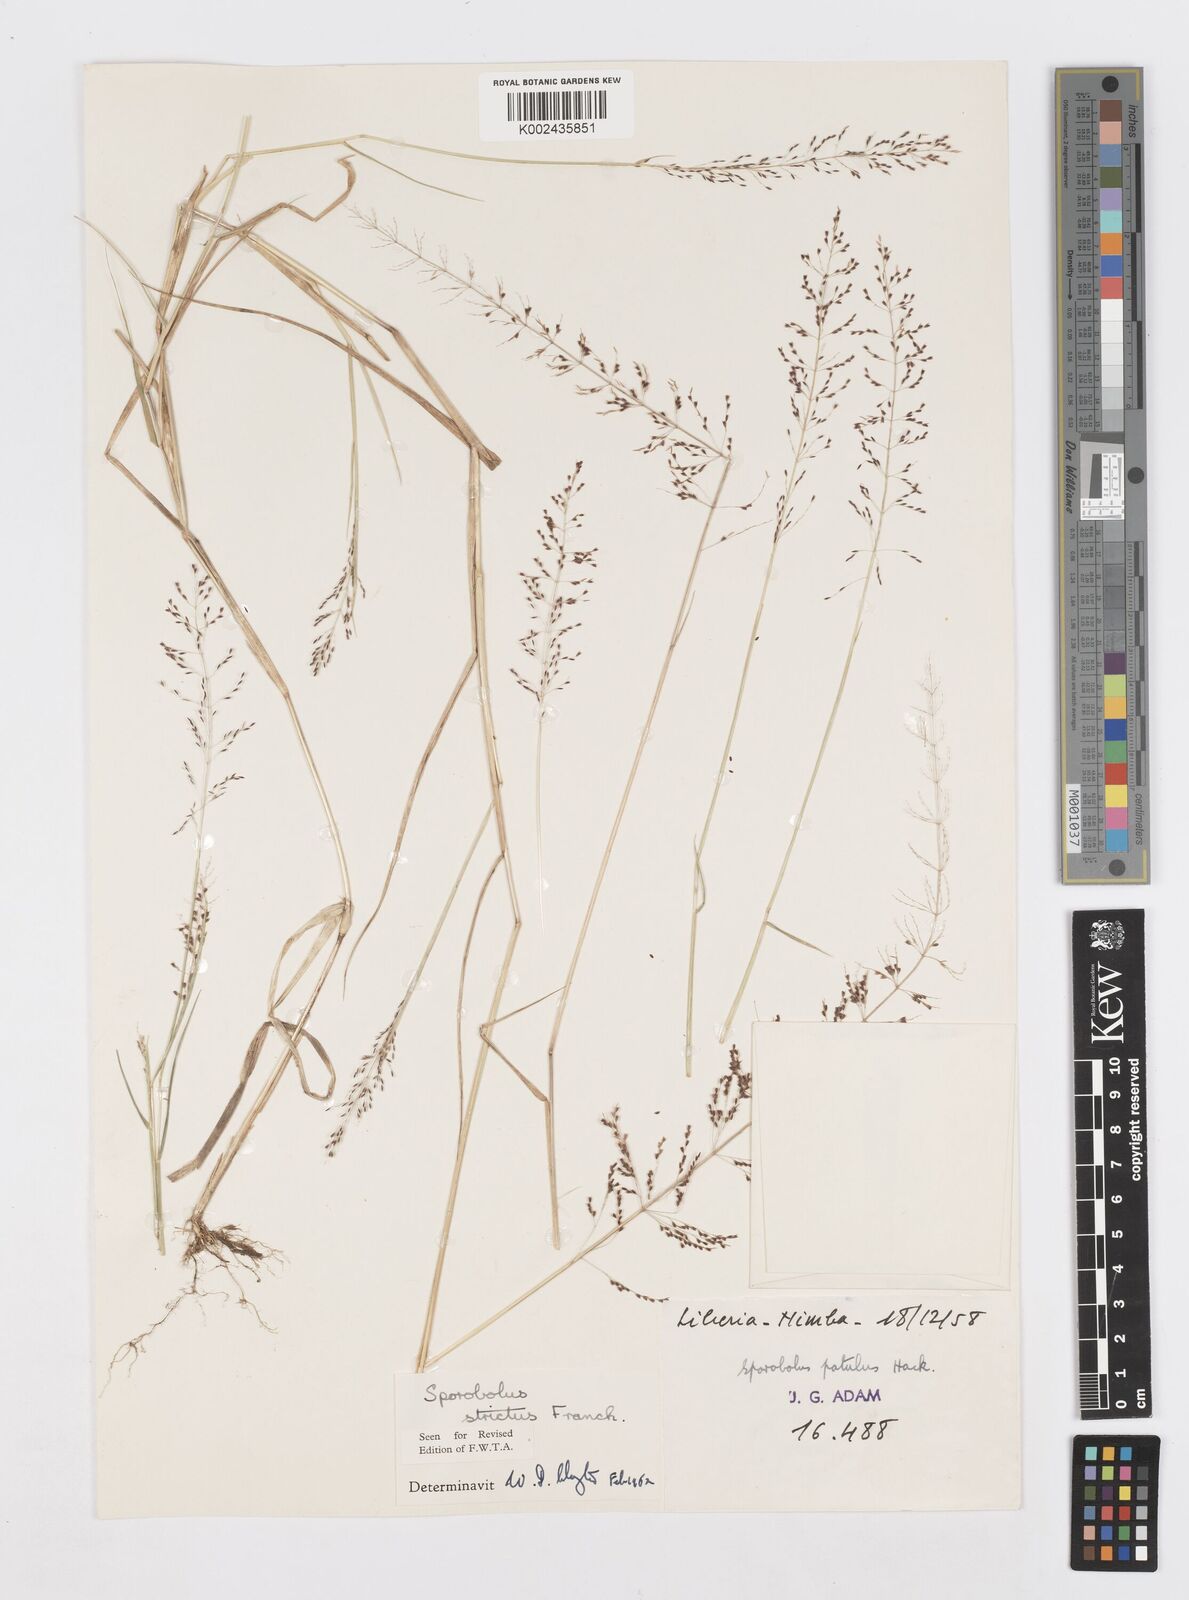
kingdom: Plantae
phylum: Tracheophyta
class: Liliopsida
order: Poales
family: Poaceae
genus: Sporobolus
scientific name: Sporobolus paniculatus
